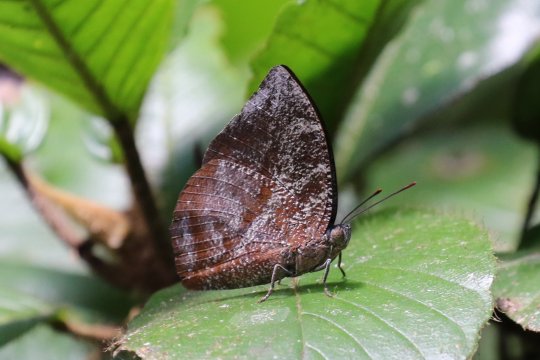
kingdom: Animalia
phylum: Arthropoda
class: Insecta
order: Lepidoptera
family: Nymphalidae
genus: Memphis
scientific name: Memphis lyceus
